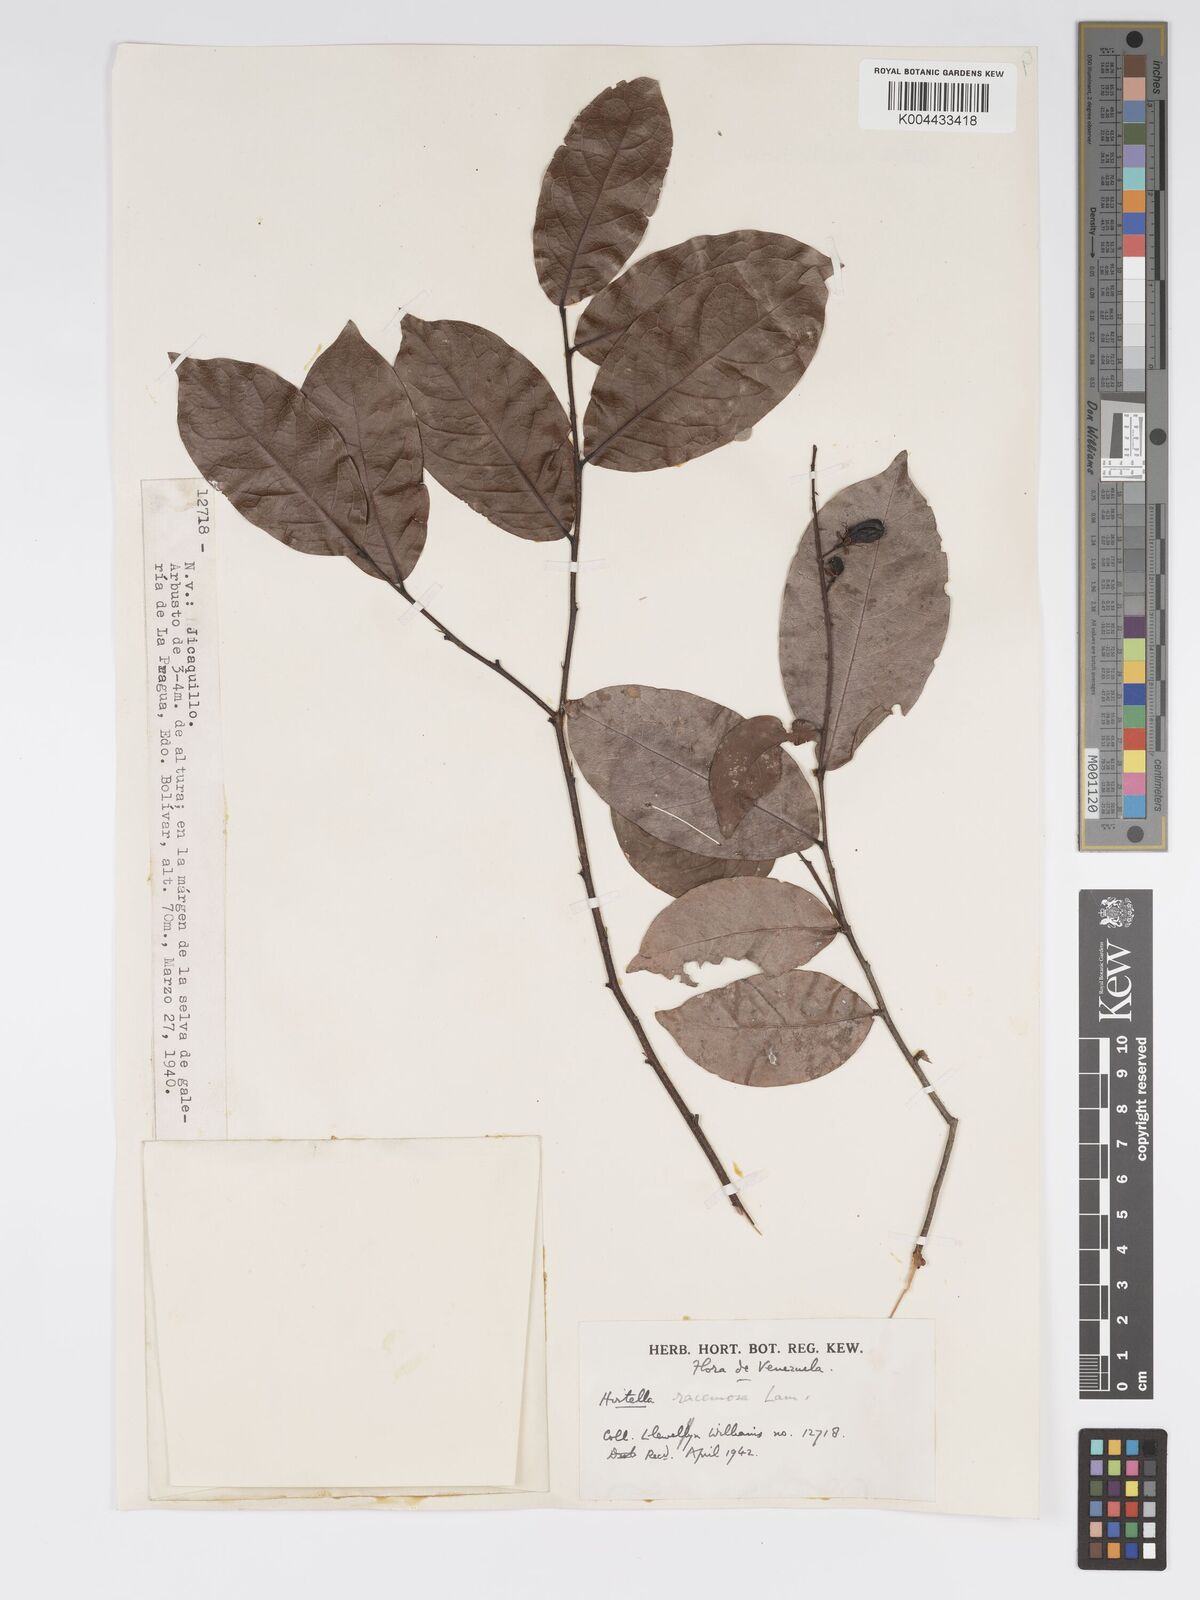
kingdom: Plantae
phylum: Tracheophyta
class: Magnoliopsida
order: Malpighiales
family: Chrysobalanaceae
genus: Hirtella
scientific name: Hirtella racemosa
